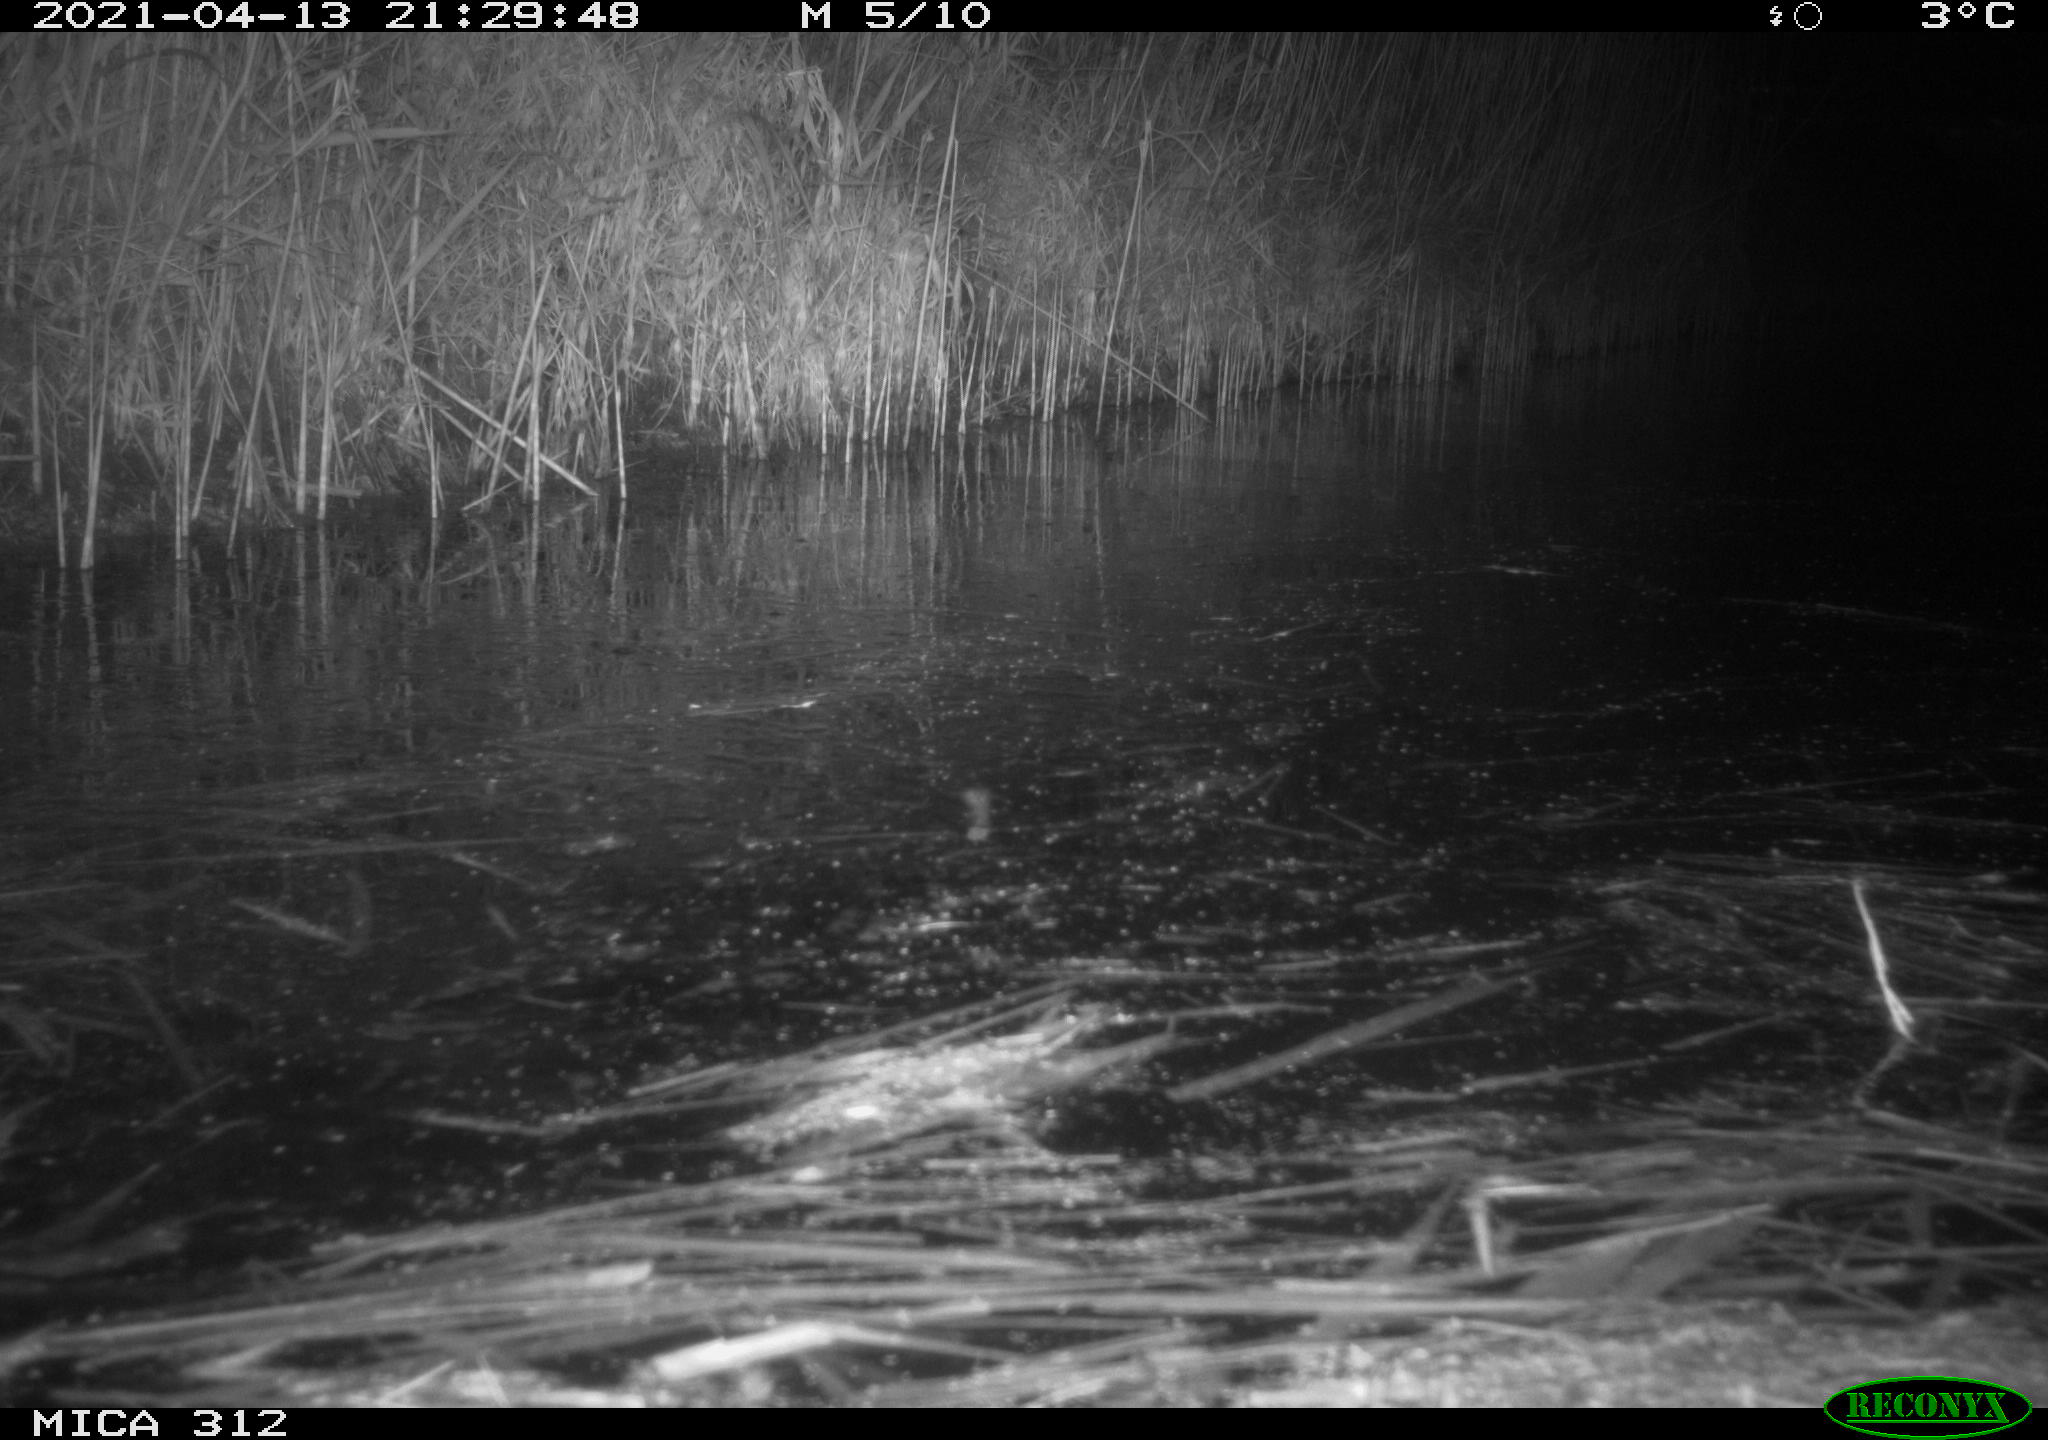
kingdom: Animalia
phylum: Chordata
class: Aves
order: Gruiformes
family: Rallidae
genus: Fulica
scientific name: Fulica atra
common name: Eurasian coot
